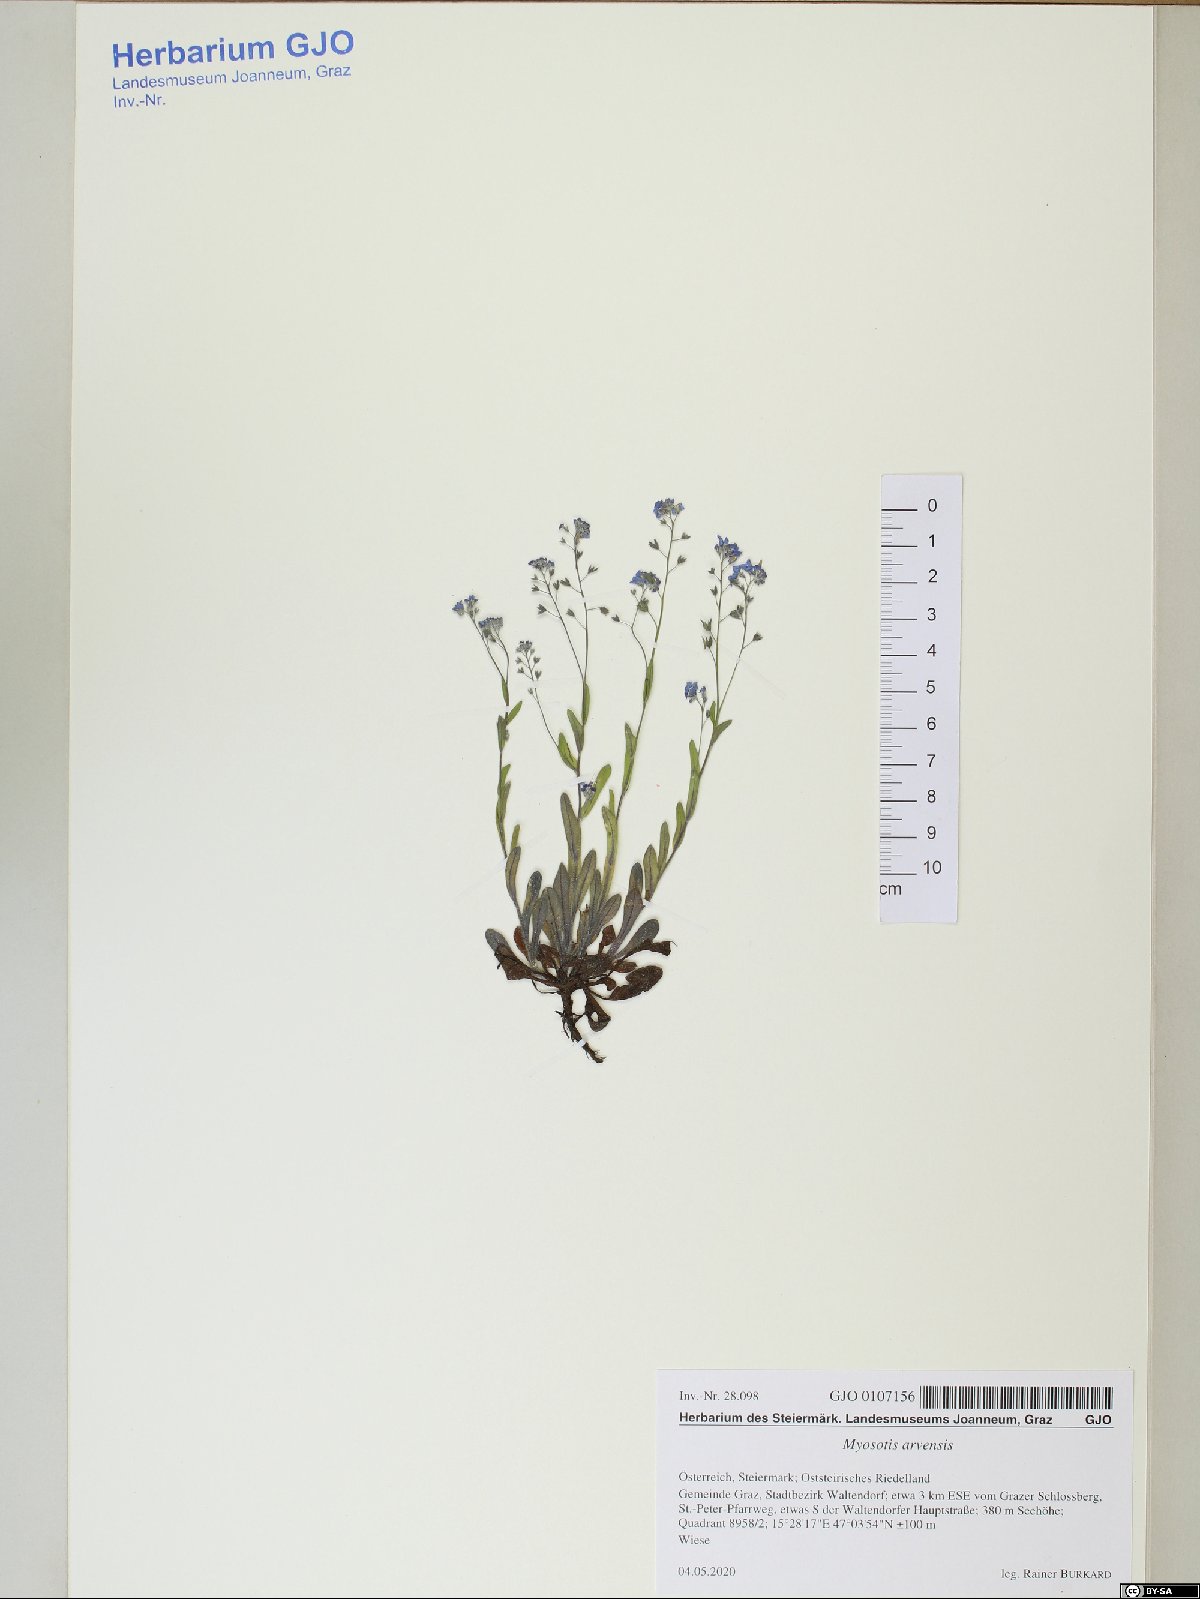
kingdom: Plantae
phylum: Tracheophyta
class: Magnoliopsida
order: Boraginales
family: Boraginaceae
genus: Myosotis
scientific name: Myosotis arvensis
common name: Field forget-me-not
